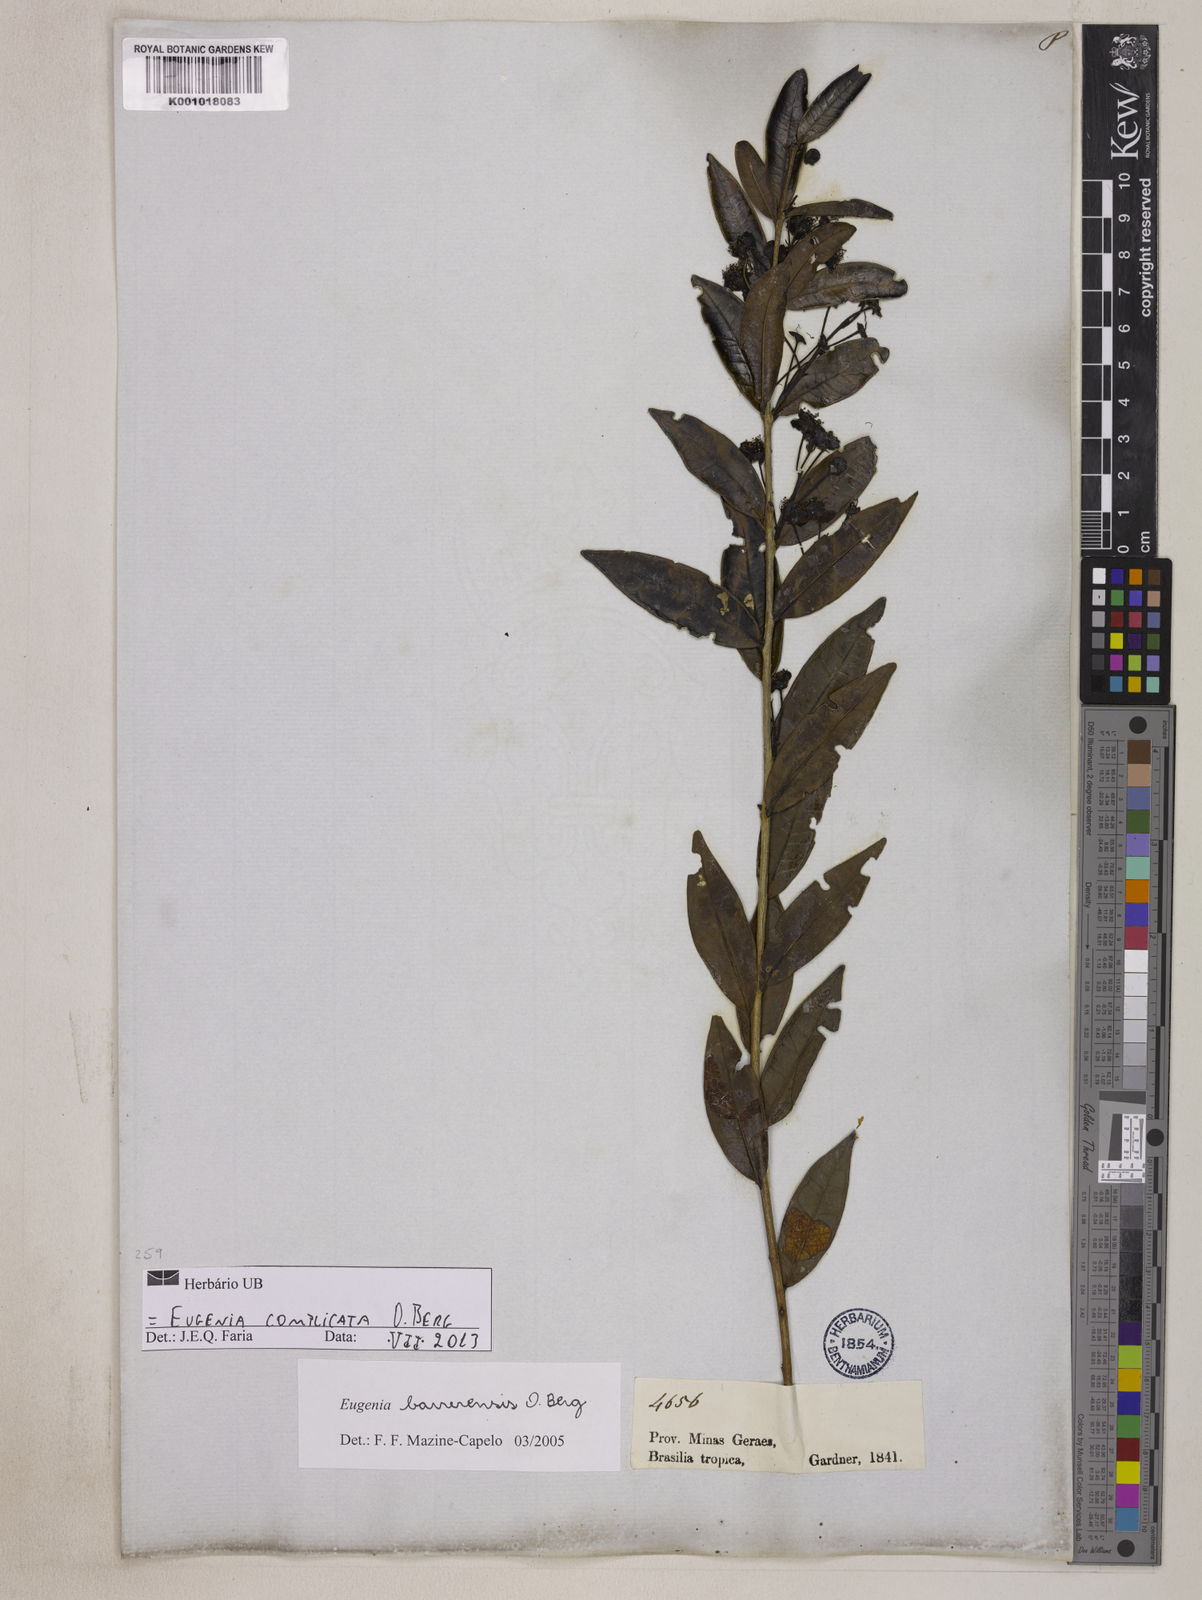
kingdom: Plantae
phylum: Tracheophyta
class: Magnoliopsida
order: Myrtales
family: Myrtaceae
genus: Eugenia
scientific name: Eugenia complicata
